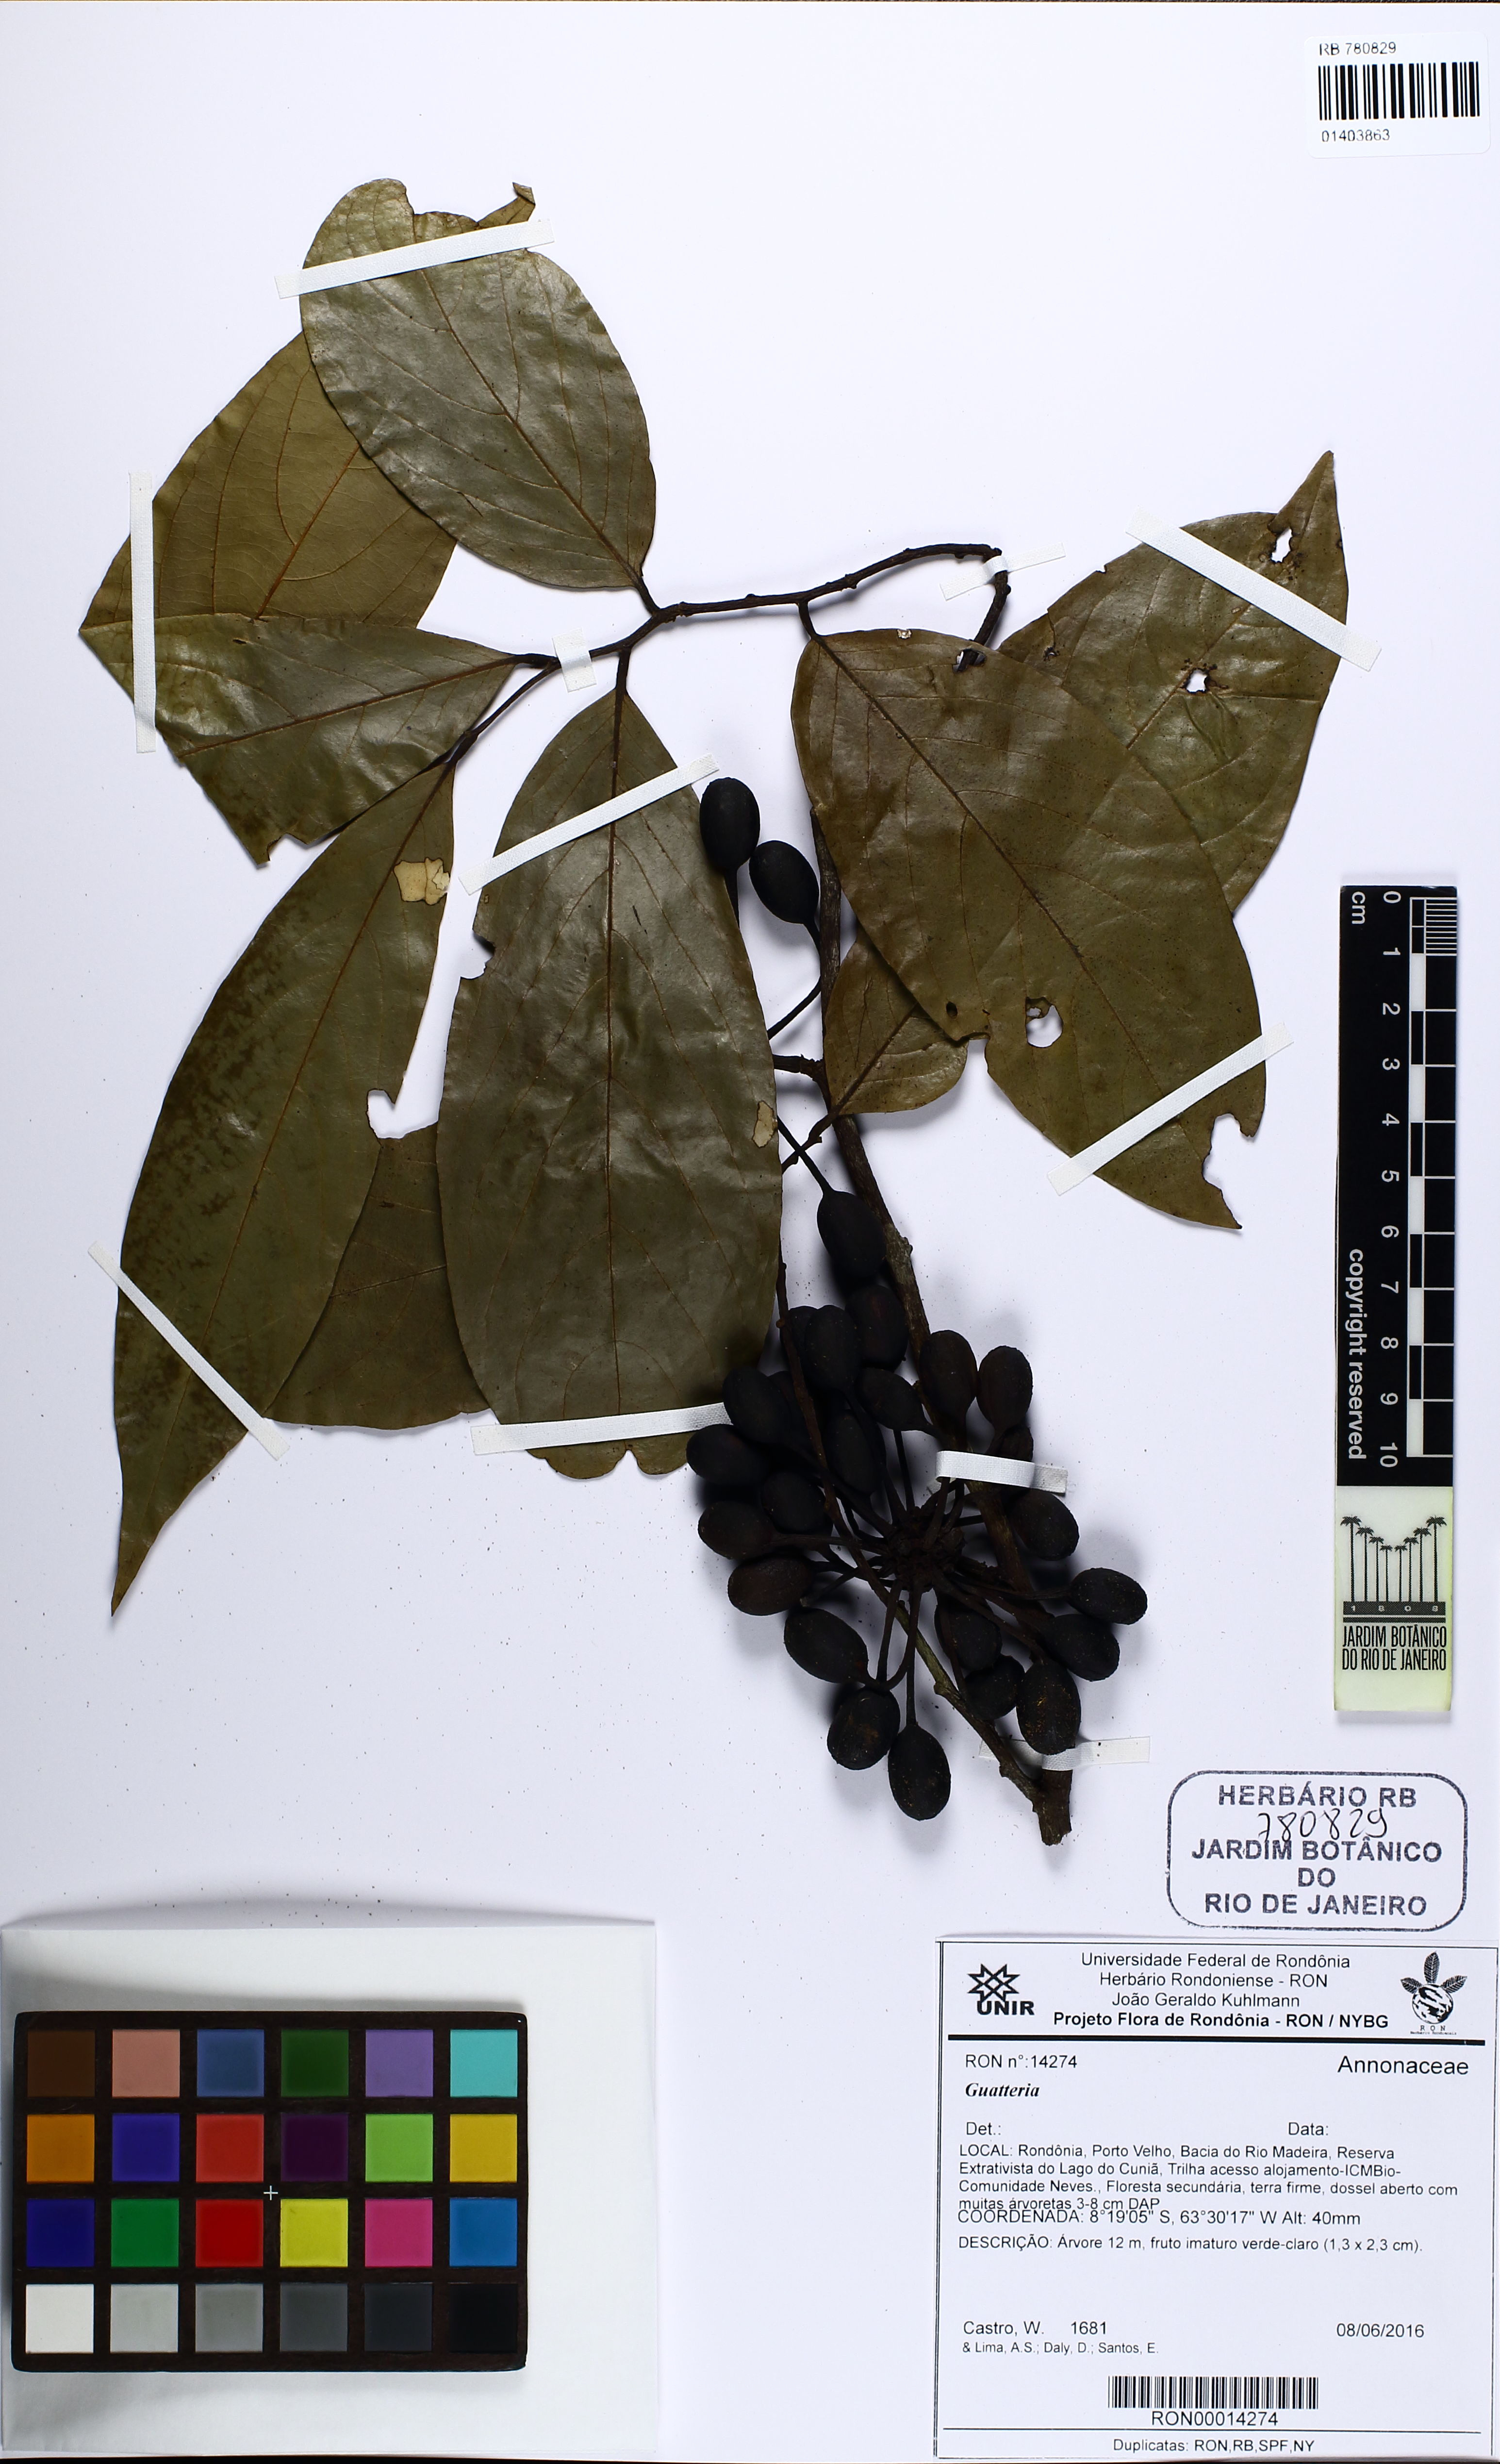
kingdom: Plantae
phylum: Tracheophyta
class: Magnoliopsida
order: Magnoliales
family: Annonaceae
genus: Guatteria
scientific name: Guatteria
